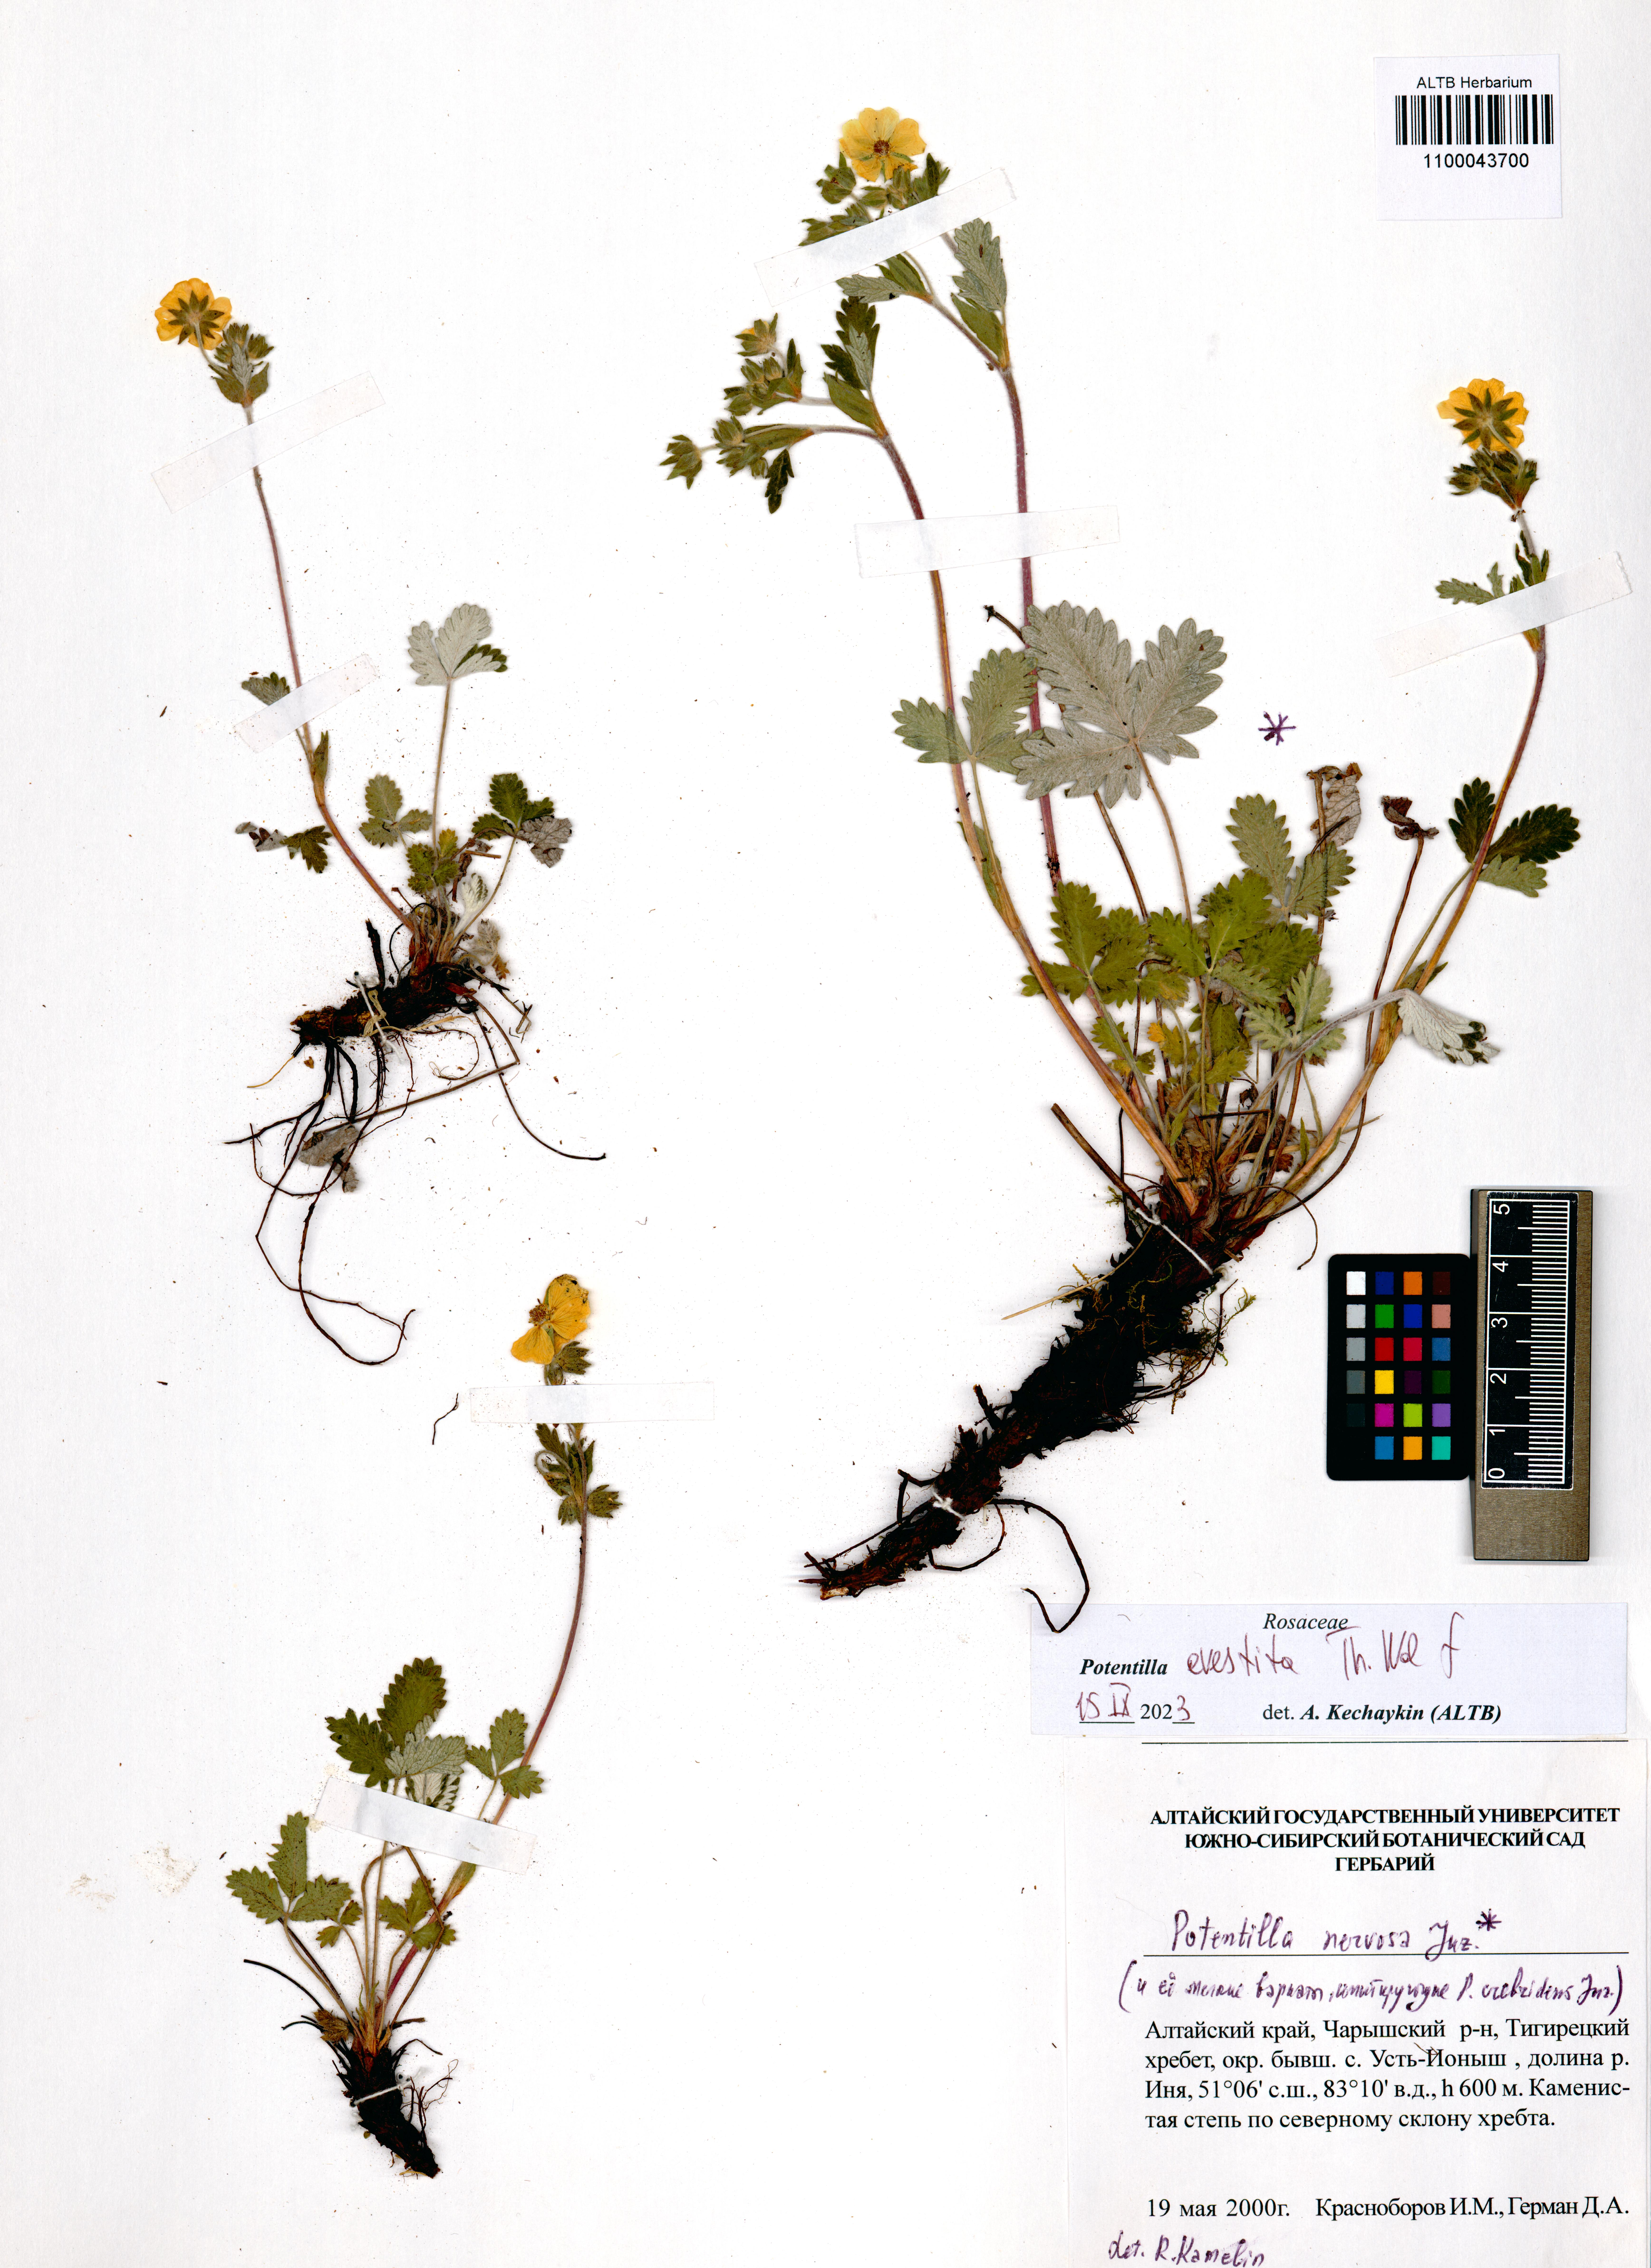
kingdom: Plantae
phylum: Tracheophyta
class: Magnoliopsida
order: Rosales
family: Rosaceae
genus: Potentilla
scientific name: Potentilla evestita
